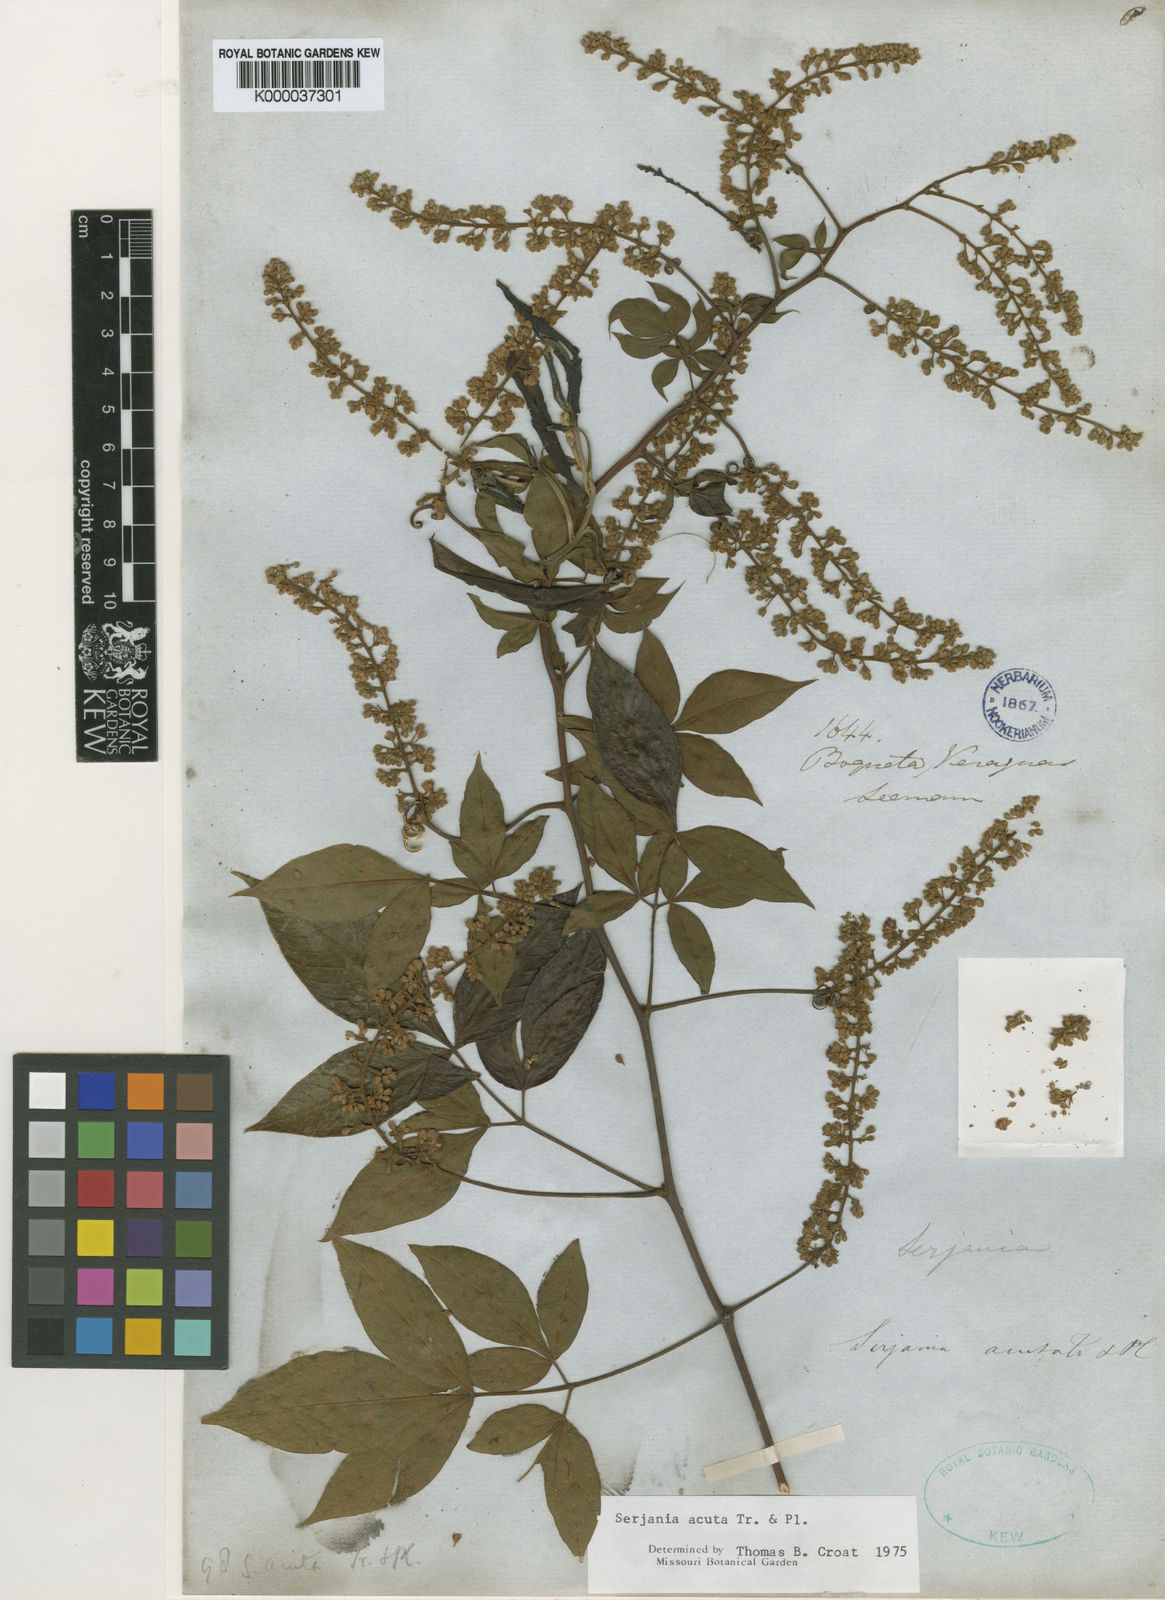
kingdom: Plantae
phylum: Tracheophyta
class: Magnoliopsida
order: Sapindales
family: Sapindaceae
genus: Serjania
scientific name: Serjania acuta
